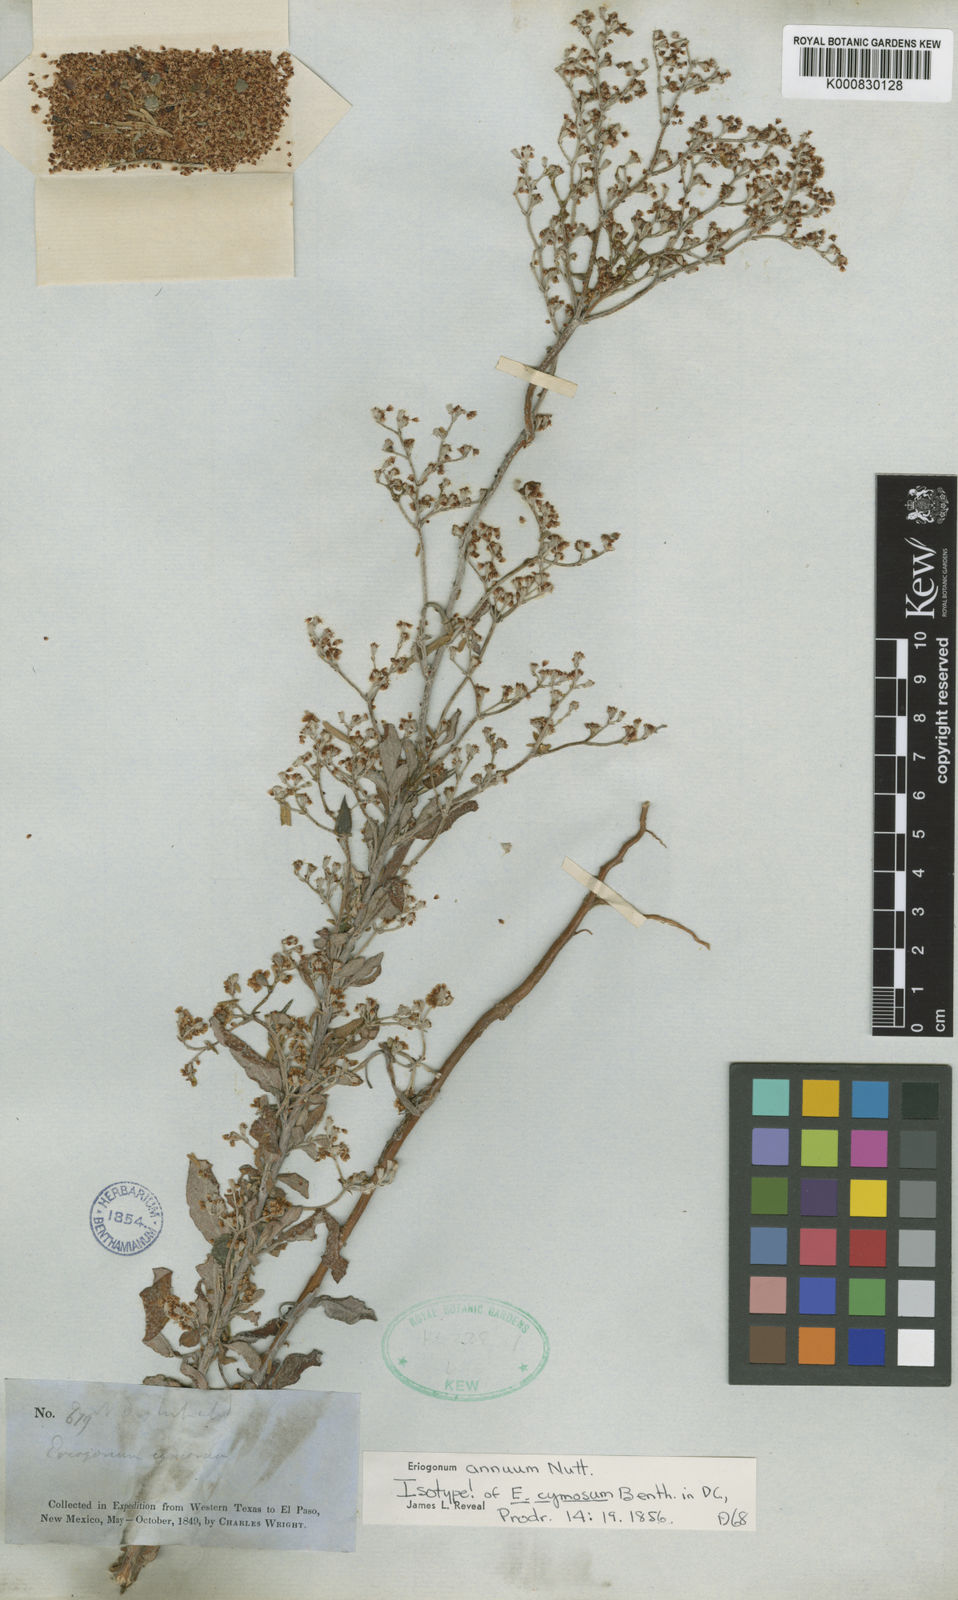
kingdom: Plantae
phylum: Tracheophyta
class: Magnoliopsida
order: Caryophyllales
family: Polygonaceae
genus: Eriogonum
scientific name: Eriogonum annuum
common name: Annual wild buckwheat
